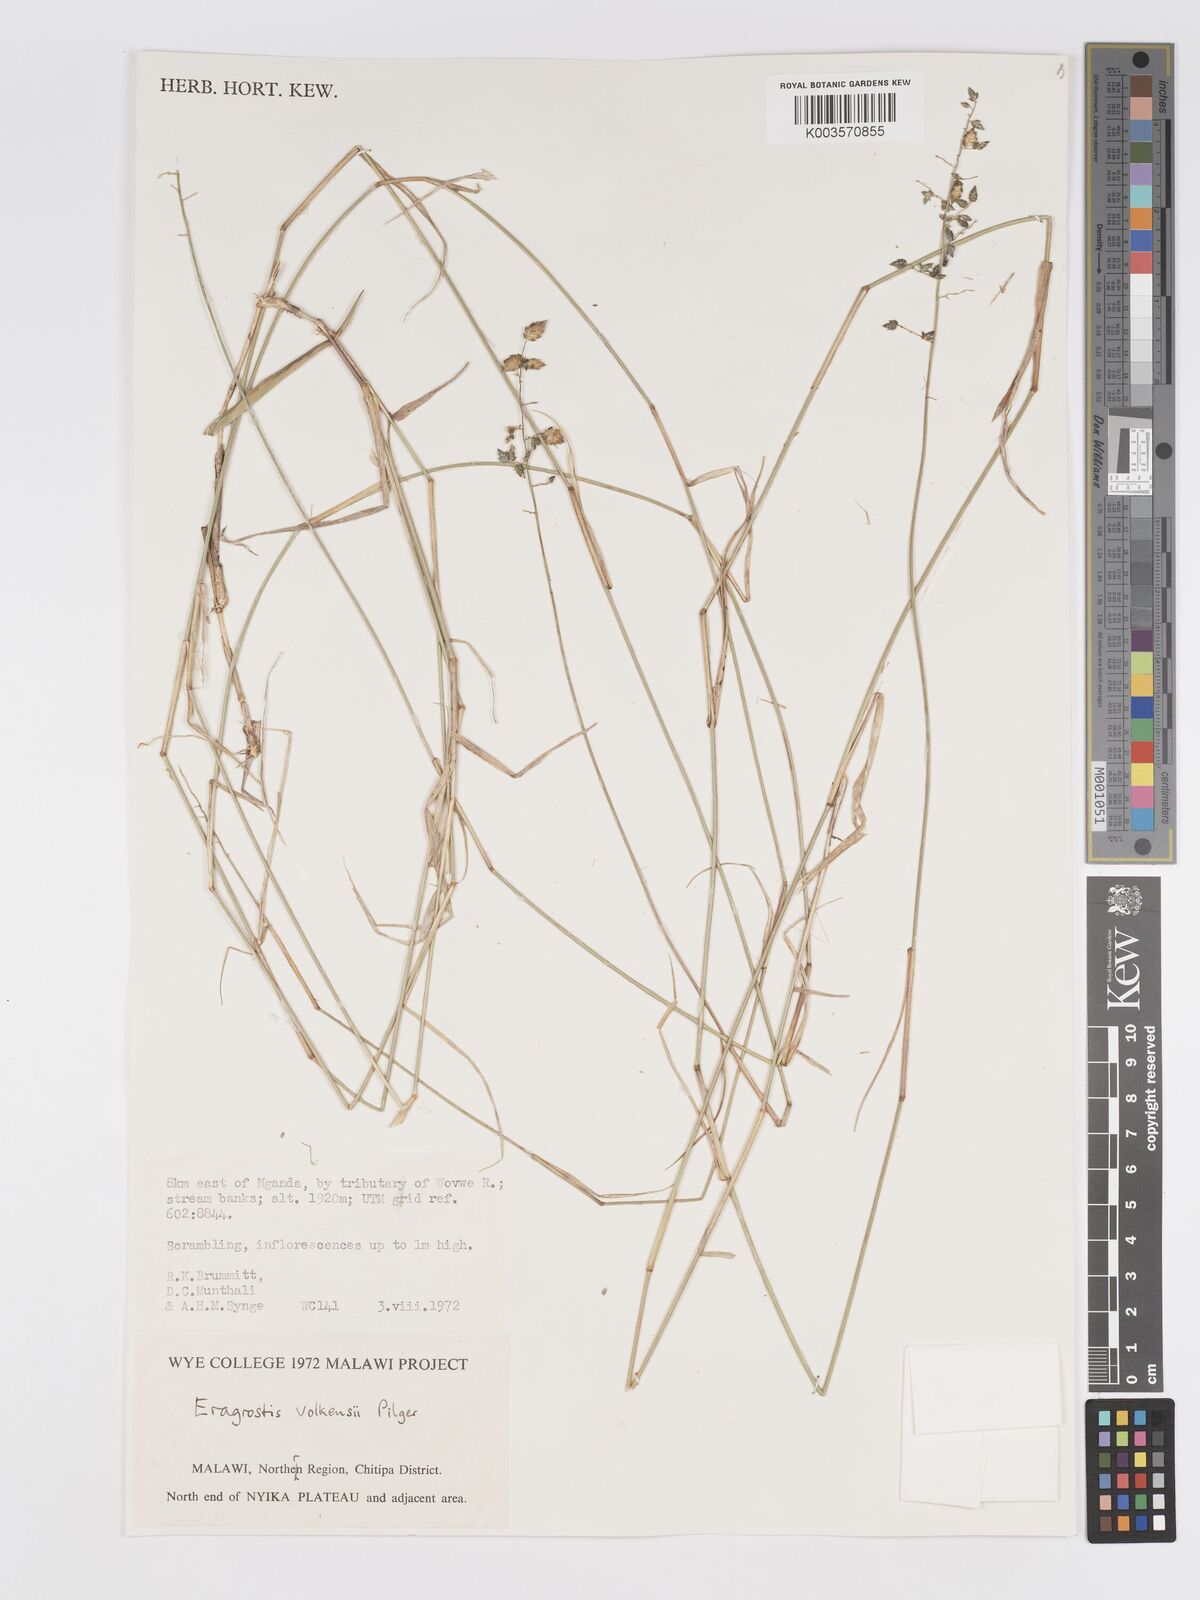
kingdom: Plantae
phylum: Tracheophyta
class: Liliopsida
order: Poales
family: Poaceae
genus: Eragrostis
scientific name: Eragrostis volkensii
